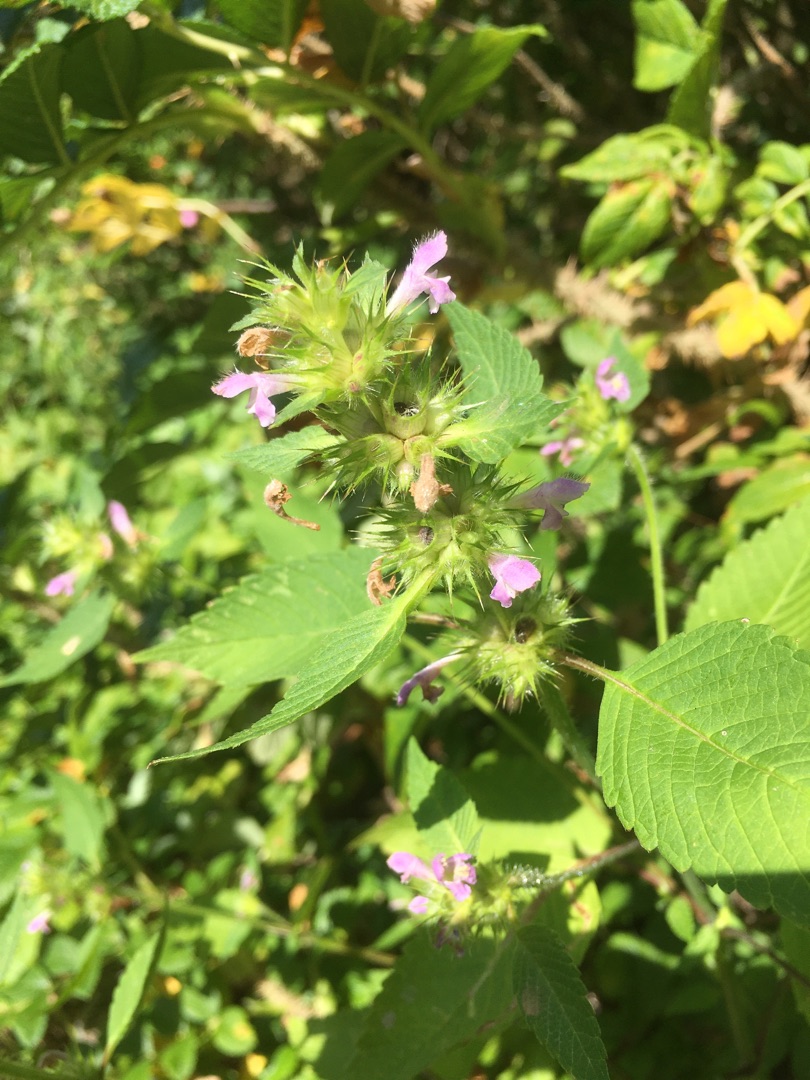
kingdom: Plantae
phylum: Tracheophyta
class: Magnoliopsida
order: Lamiales
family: Lamiaceae
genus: Galeopsis
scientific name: Galeopsis
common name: Hanekroslægten
